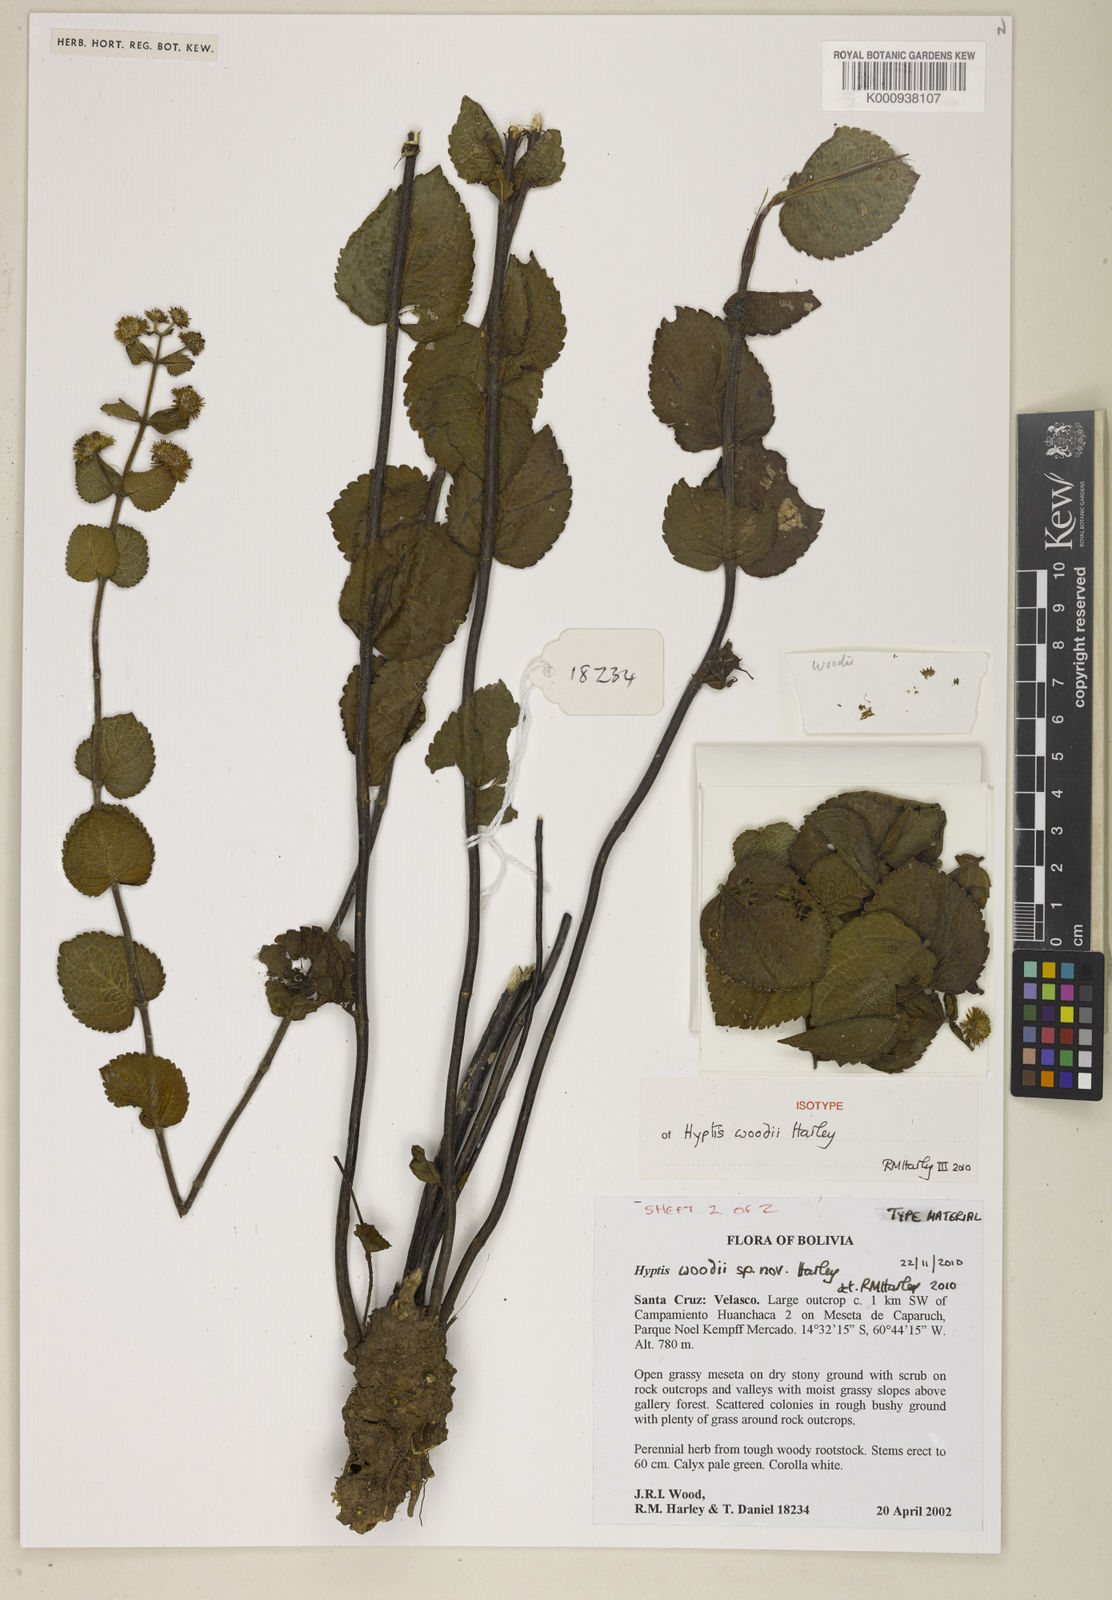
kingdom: Plantae
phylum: Tracheophyta
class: Magnoliopsida
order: Lamiales
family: Lamiaceae
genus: Hyptis
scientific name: Hyptis woodii
